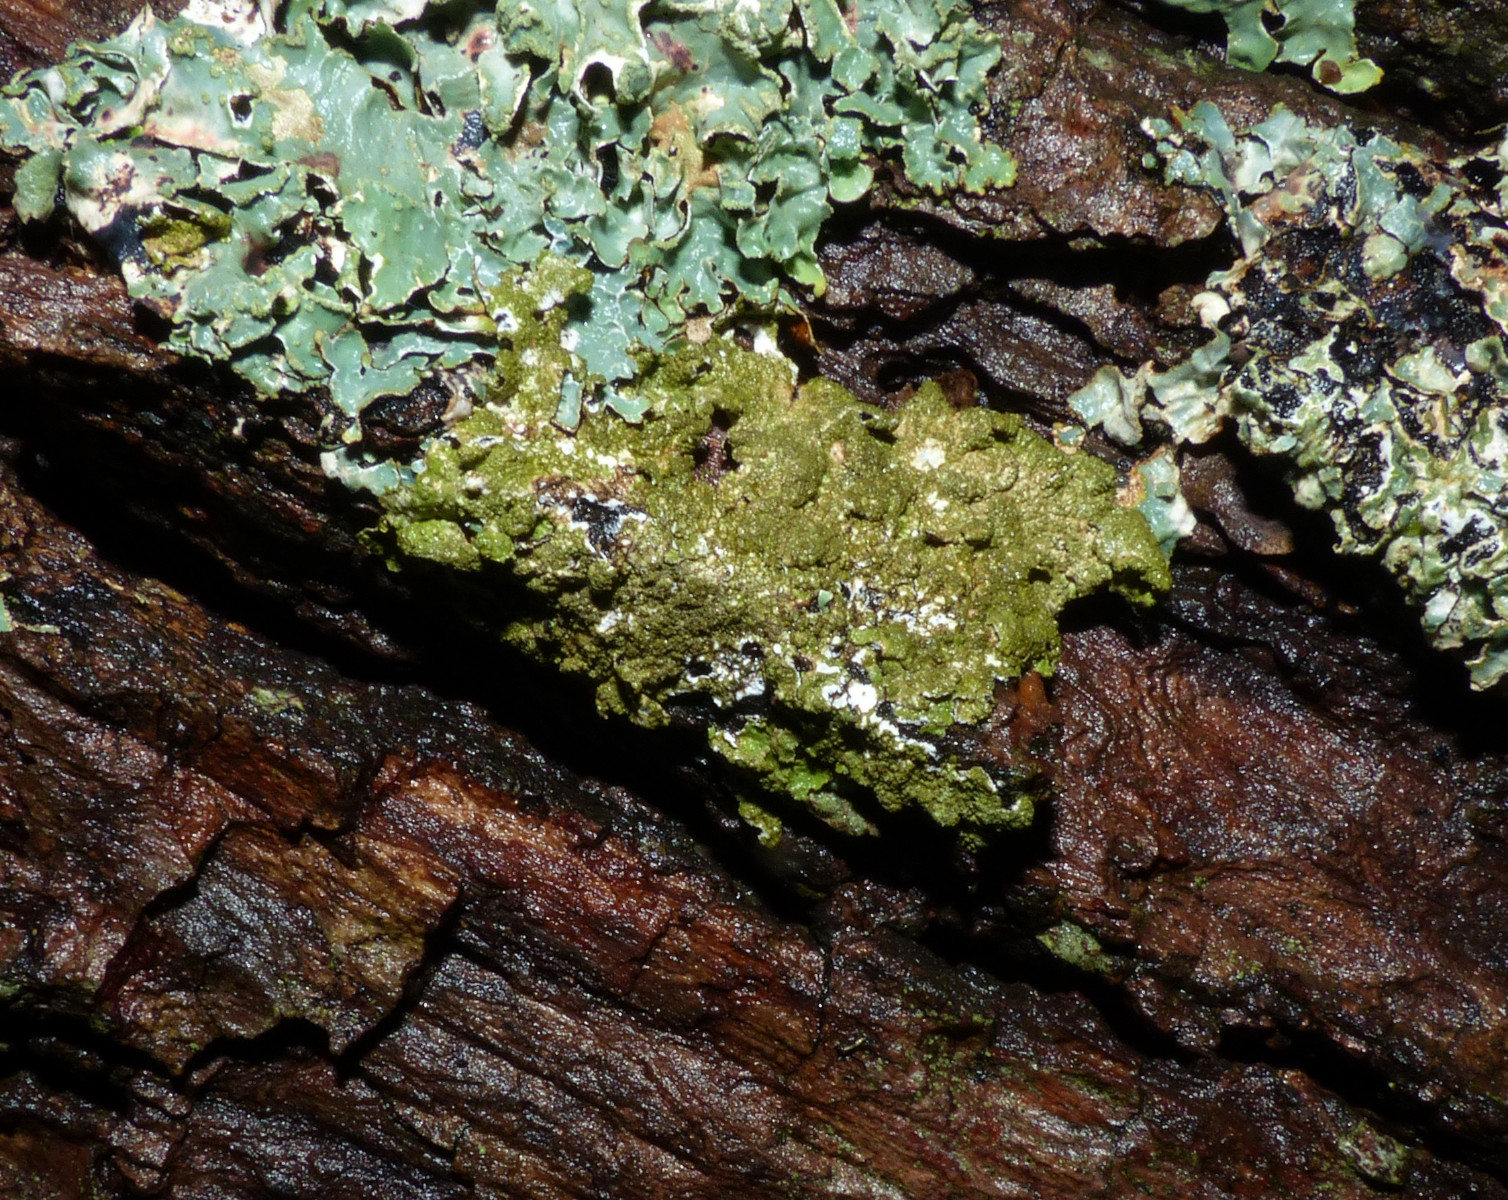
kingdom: Fungi
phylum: Ascomycota
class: Lecanoromycetes
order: Lecanorales
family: Parmeliaceae
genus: Melanelixia
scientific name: Melanelixia subaurifera
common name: guldpudret skållav
